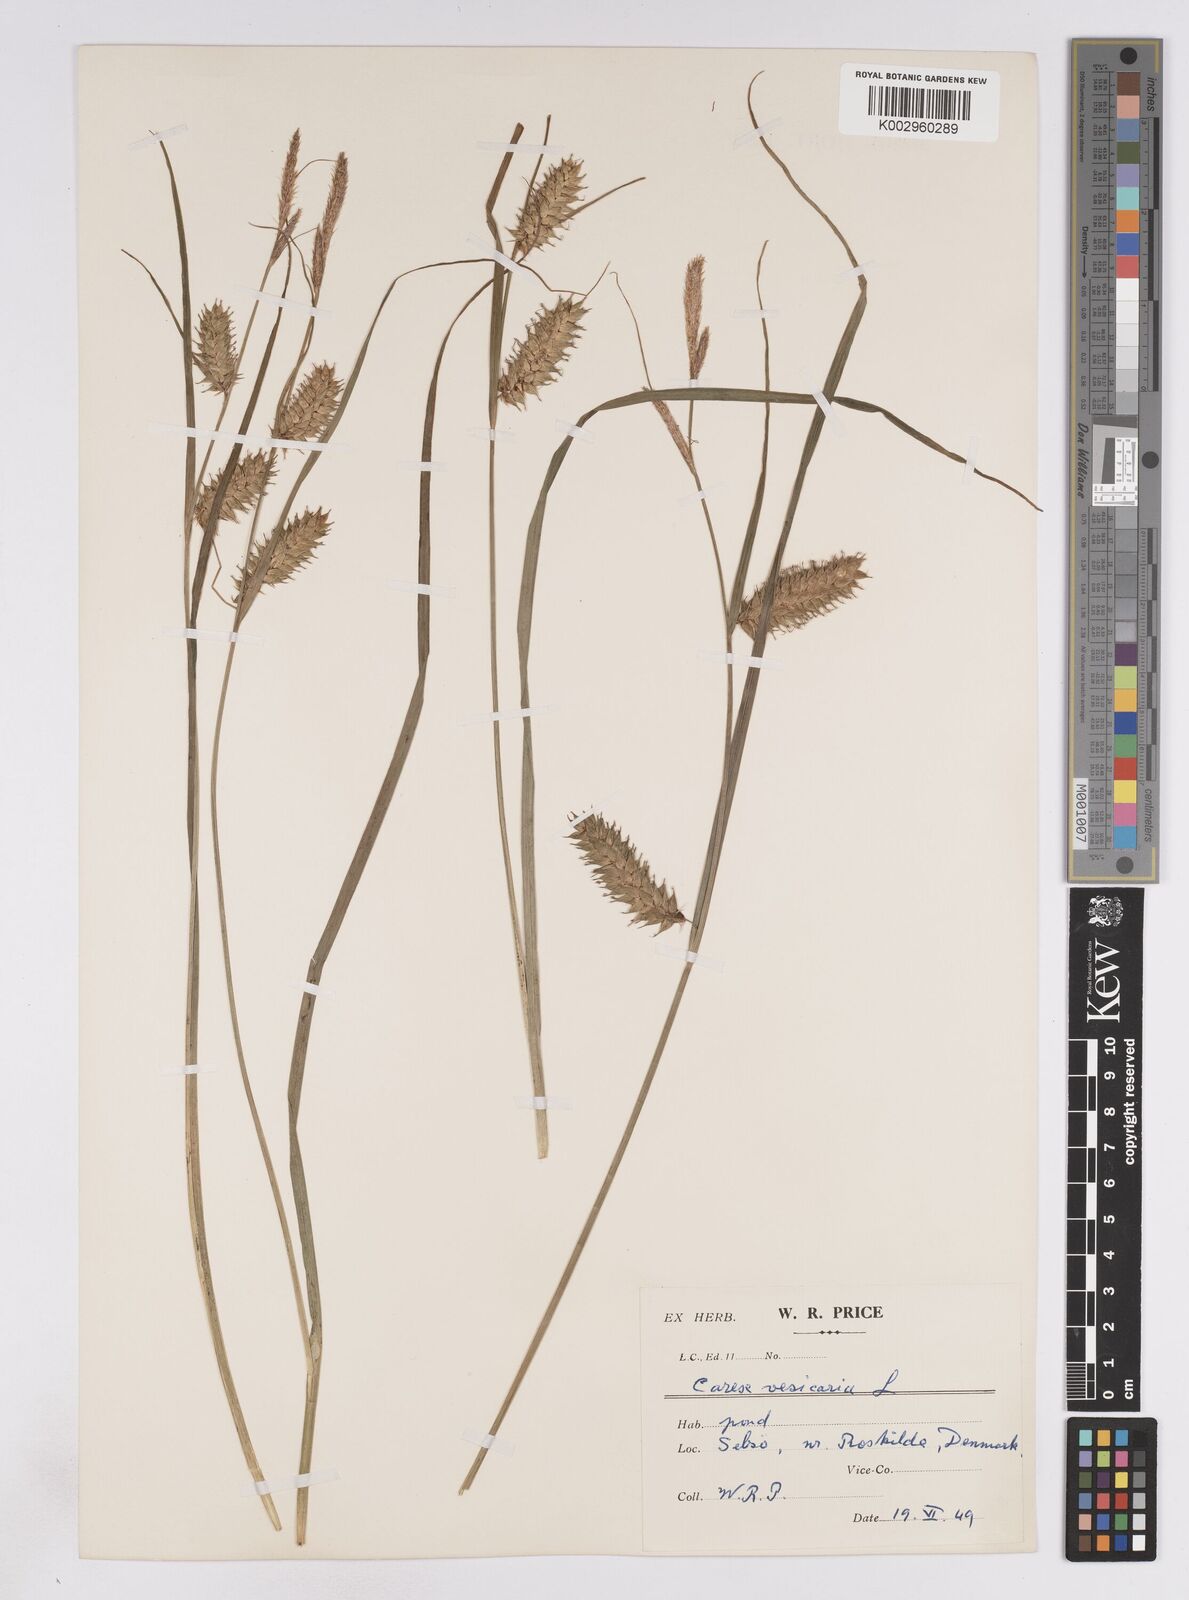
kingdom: Plantae
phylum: Tracheophyta
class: Liliopsida
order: Poales
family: Cyperaceae
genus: Carex
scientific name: Carex vesicaria
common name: Bladder-sedge
